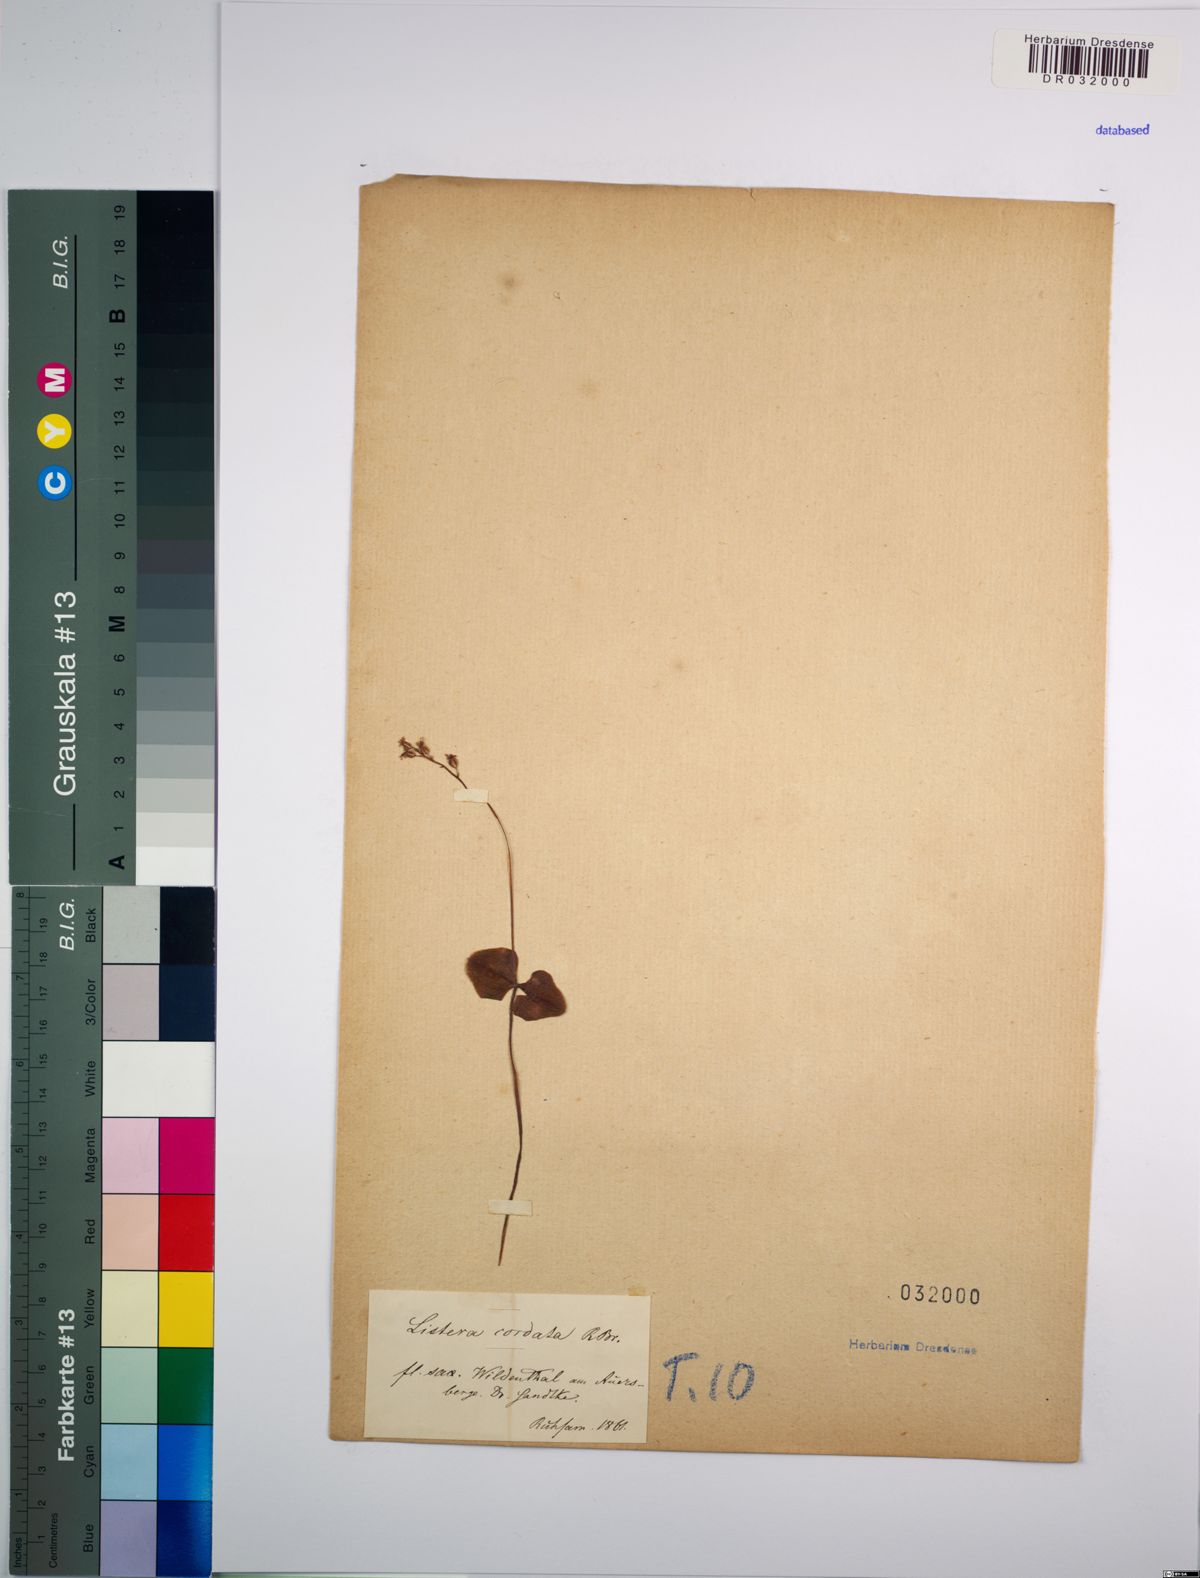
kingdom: Plantae
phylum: Tracheophyta
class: Liliopsida
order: Asparagales
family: Orchidaceae
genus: Neottia
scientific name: Neottia cordata
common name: Lesser twayblade
